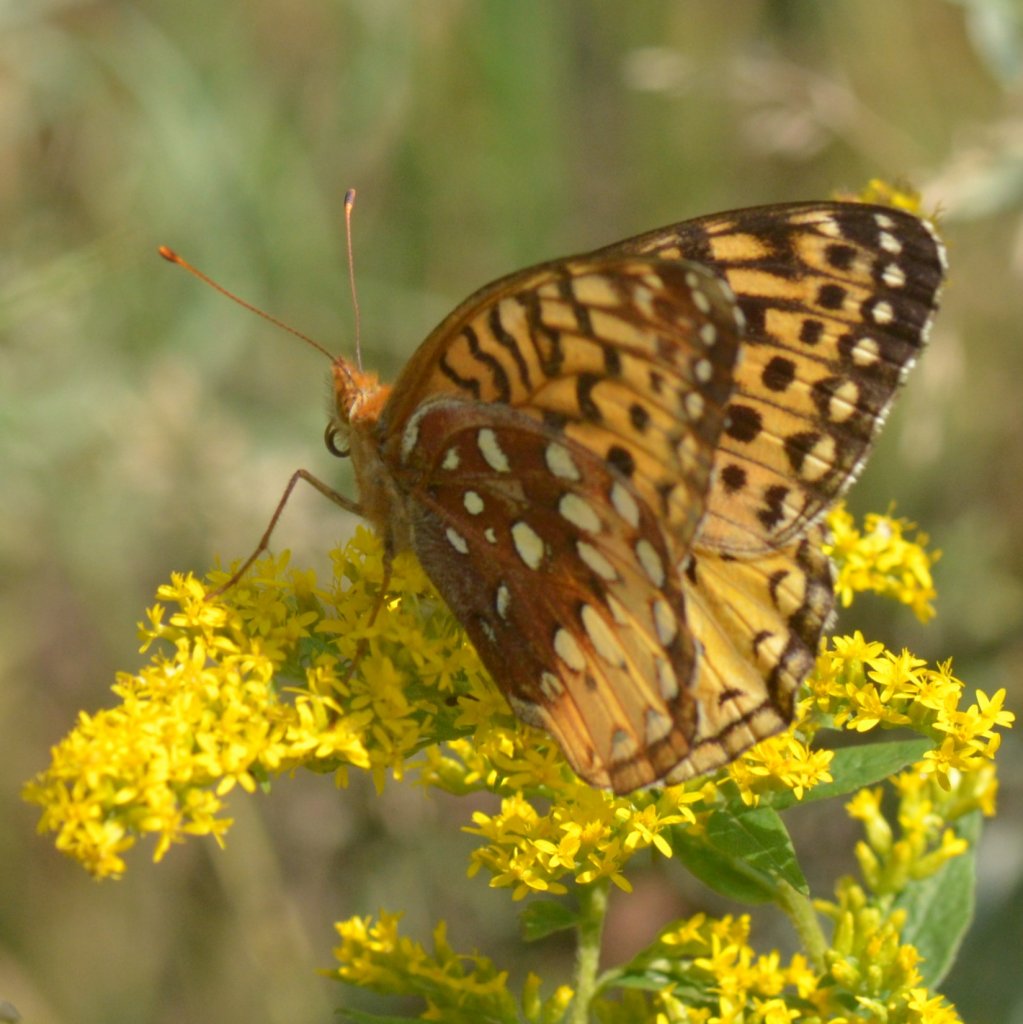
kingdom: Animalia
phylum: Arthropoda
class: Insecta
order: Lepidoptera
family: Nymphalidae
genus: Speyeria
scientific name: Speyeria cybele
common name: Great Spangled Fritillary
